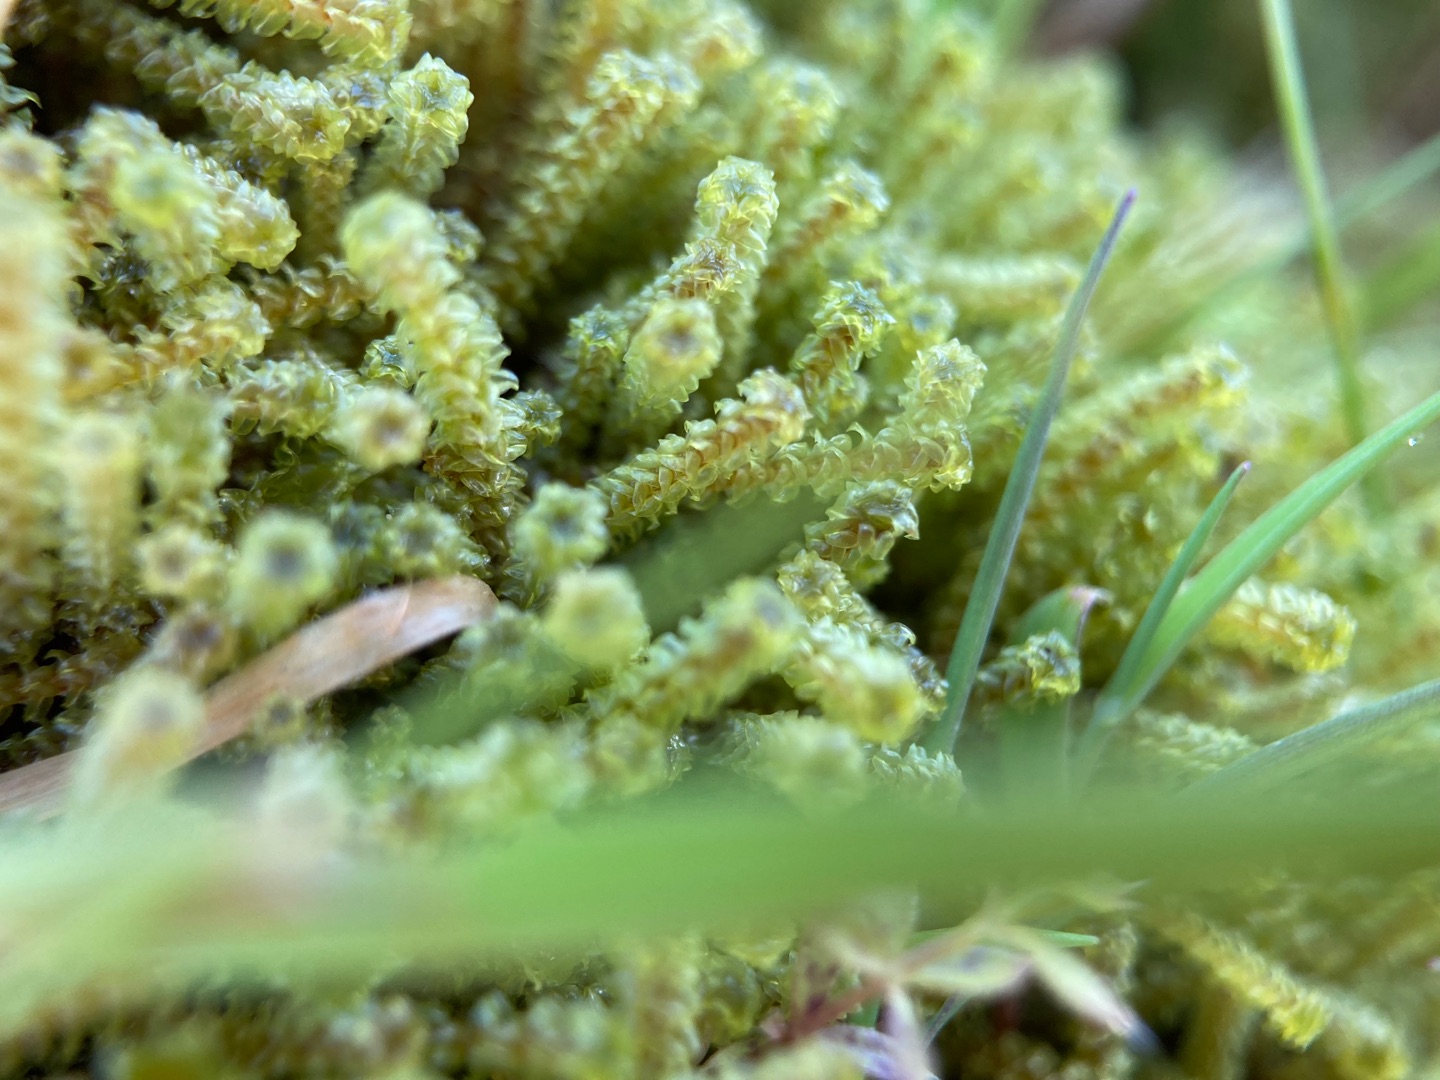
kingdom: Plantae
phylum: Bryophyta
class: Bryopsida
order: Splachnales
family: Meesiaceae
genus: Paludella
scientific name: Paludella squarrosa
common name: Almindelig piberensermos
